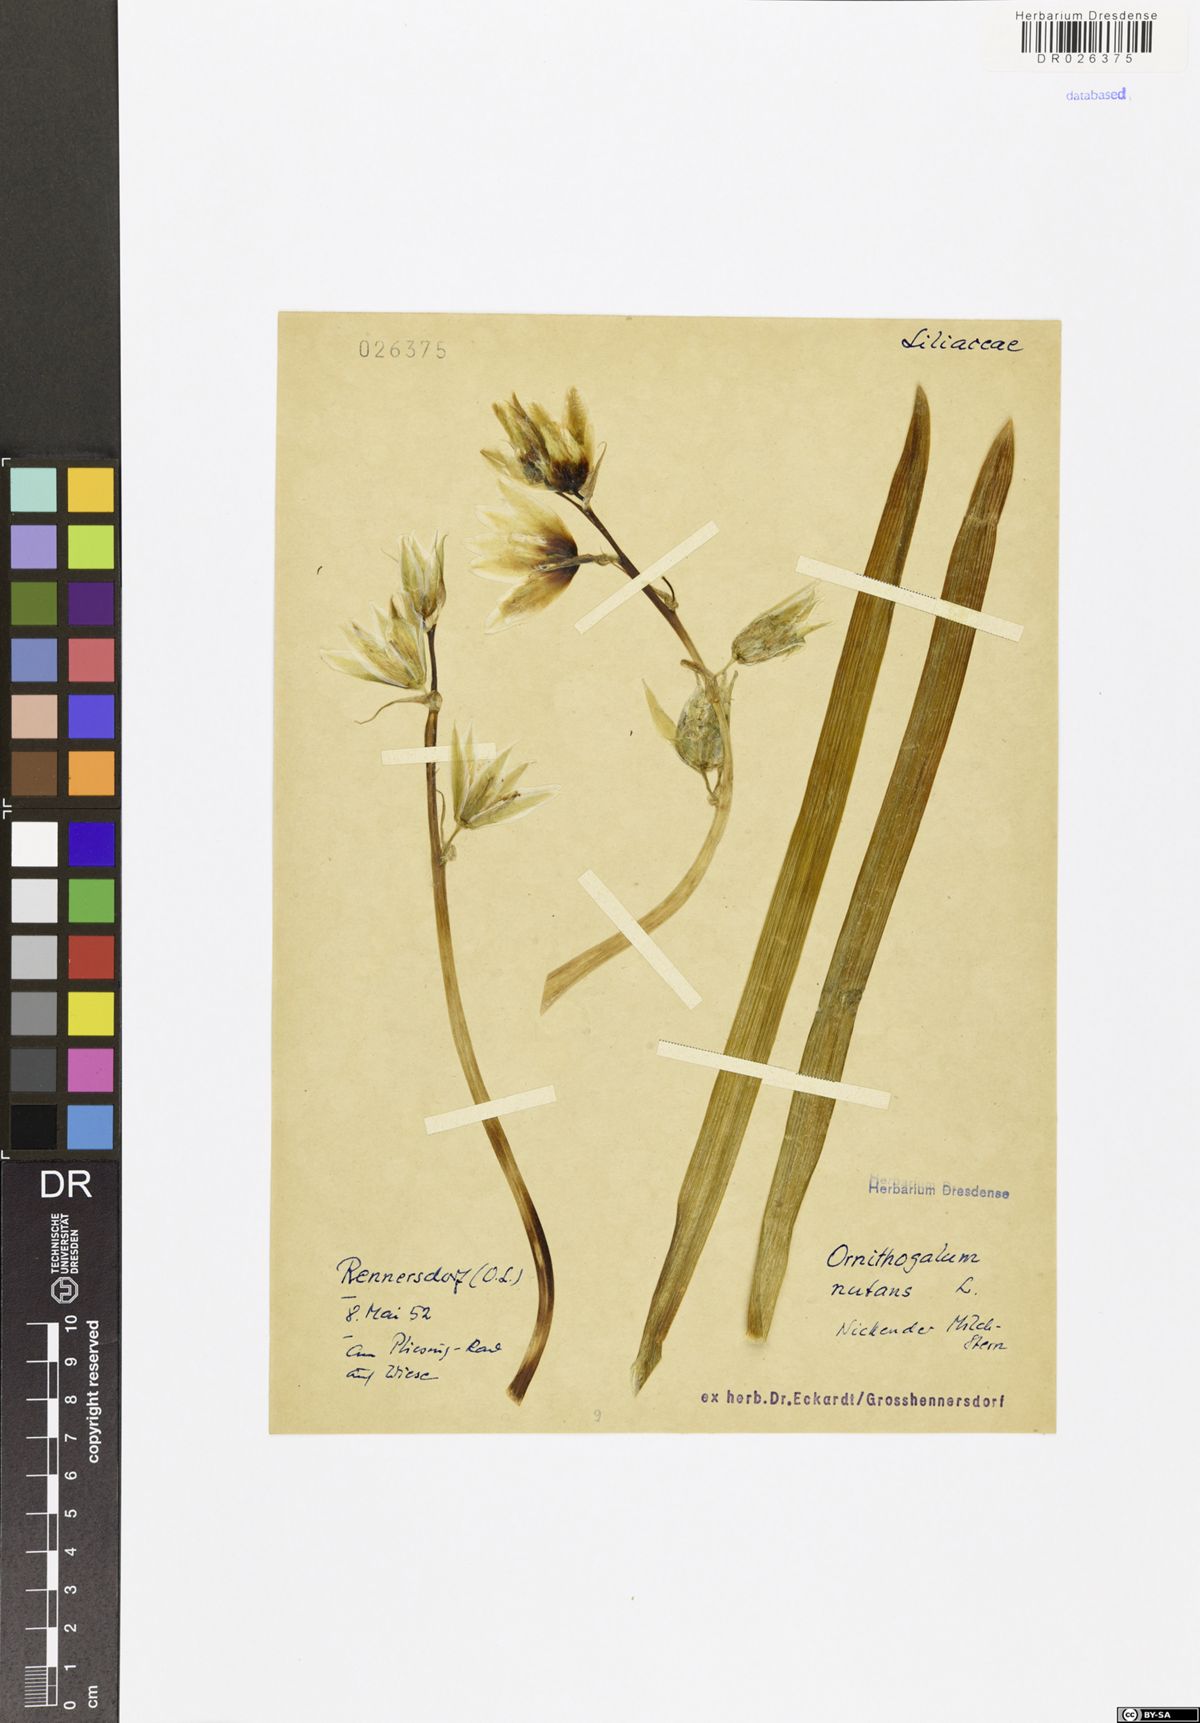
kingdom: Plantae
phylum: Tracheophyta
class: Liliopsida
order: Asparagales
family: Asparagaceae
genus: Ornithogalum
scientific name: Ornithogalum nutans
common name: Drooping star-of-bethlehem
